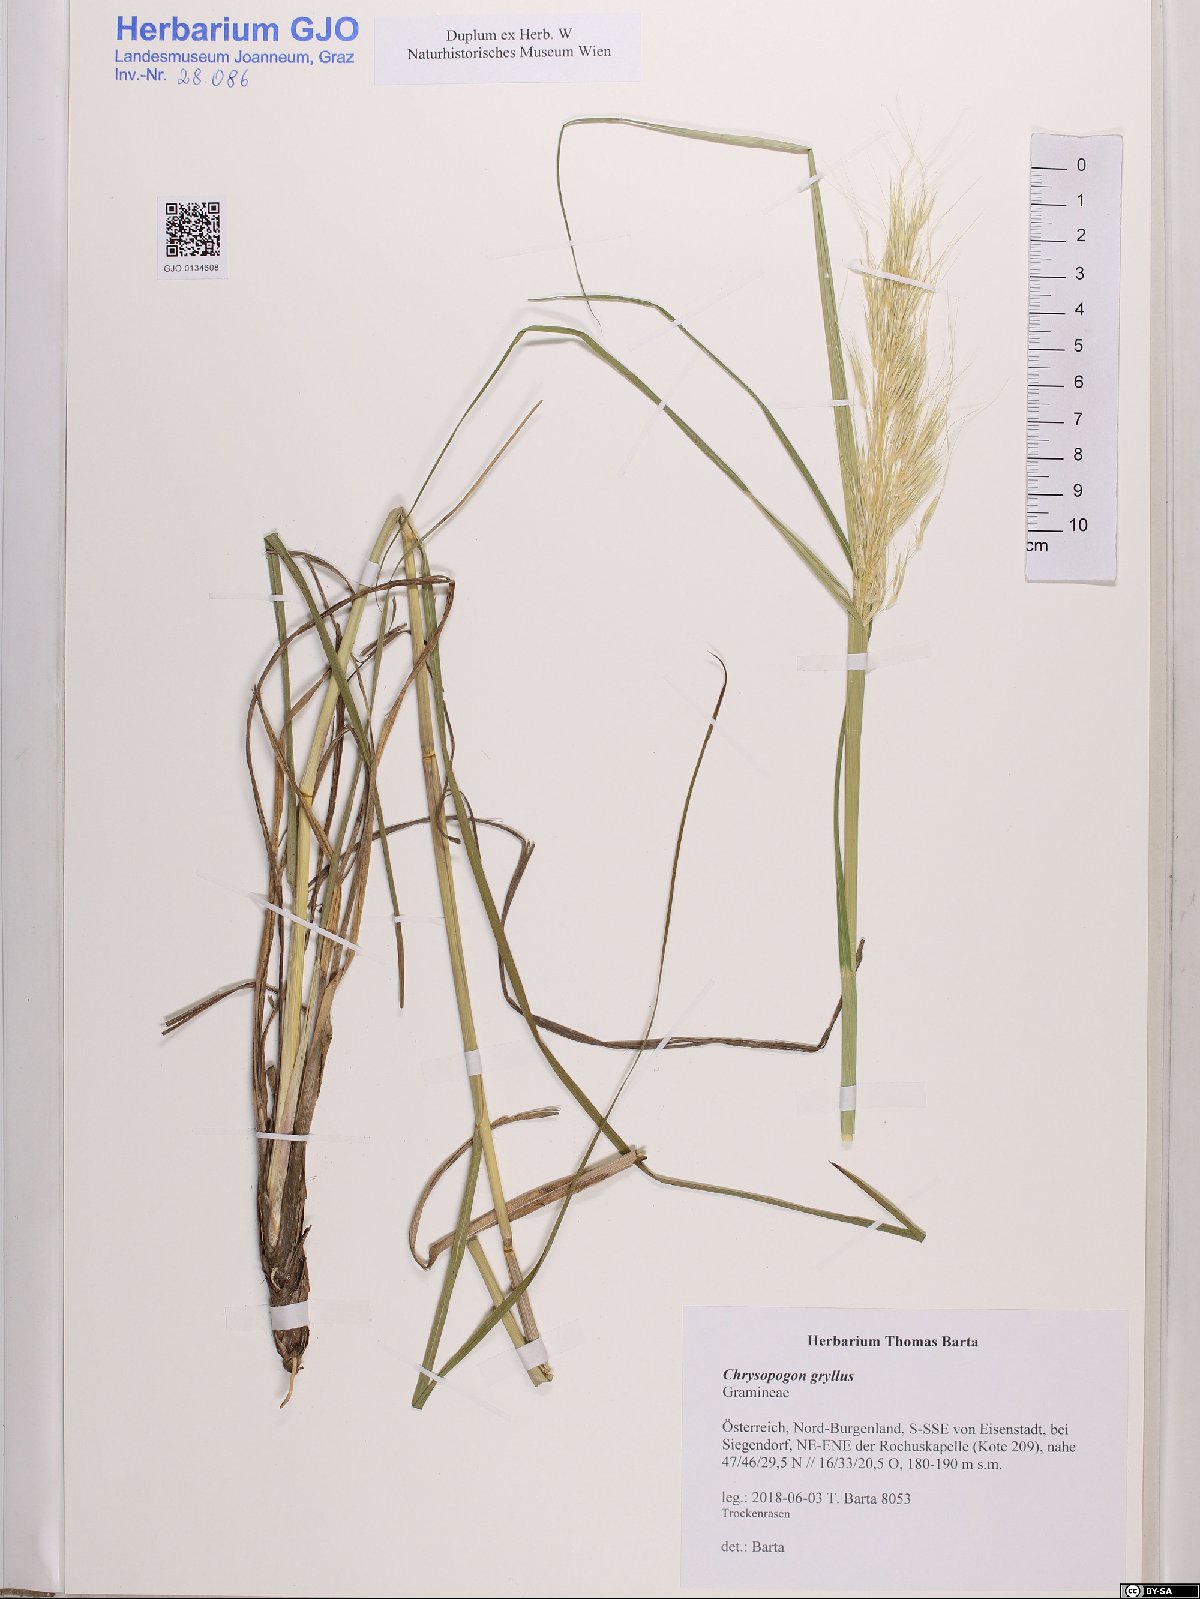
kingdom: Plantae
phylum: Tracheophyta
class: Liliopsida
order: Poales
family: Poaceae
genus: Chrysopogon
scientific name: Chrysopogon gryllus
